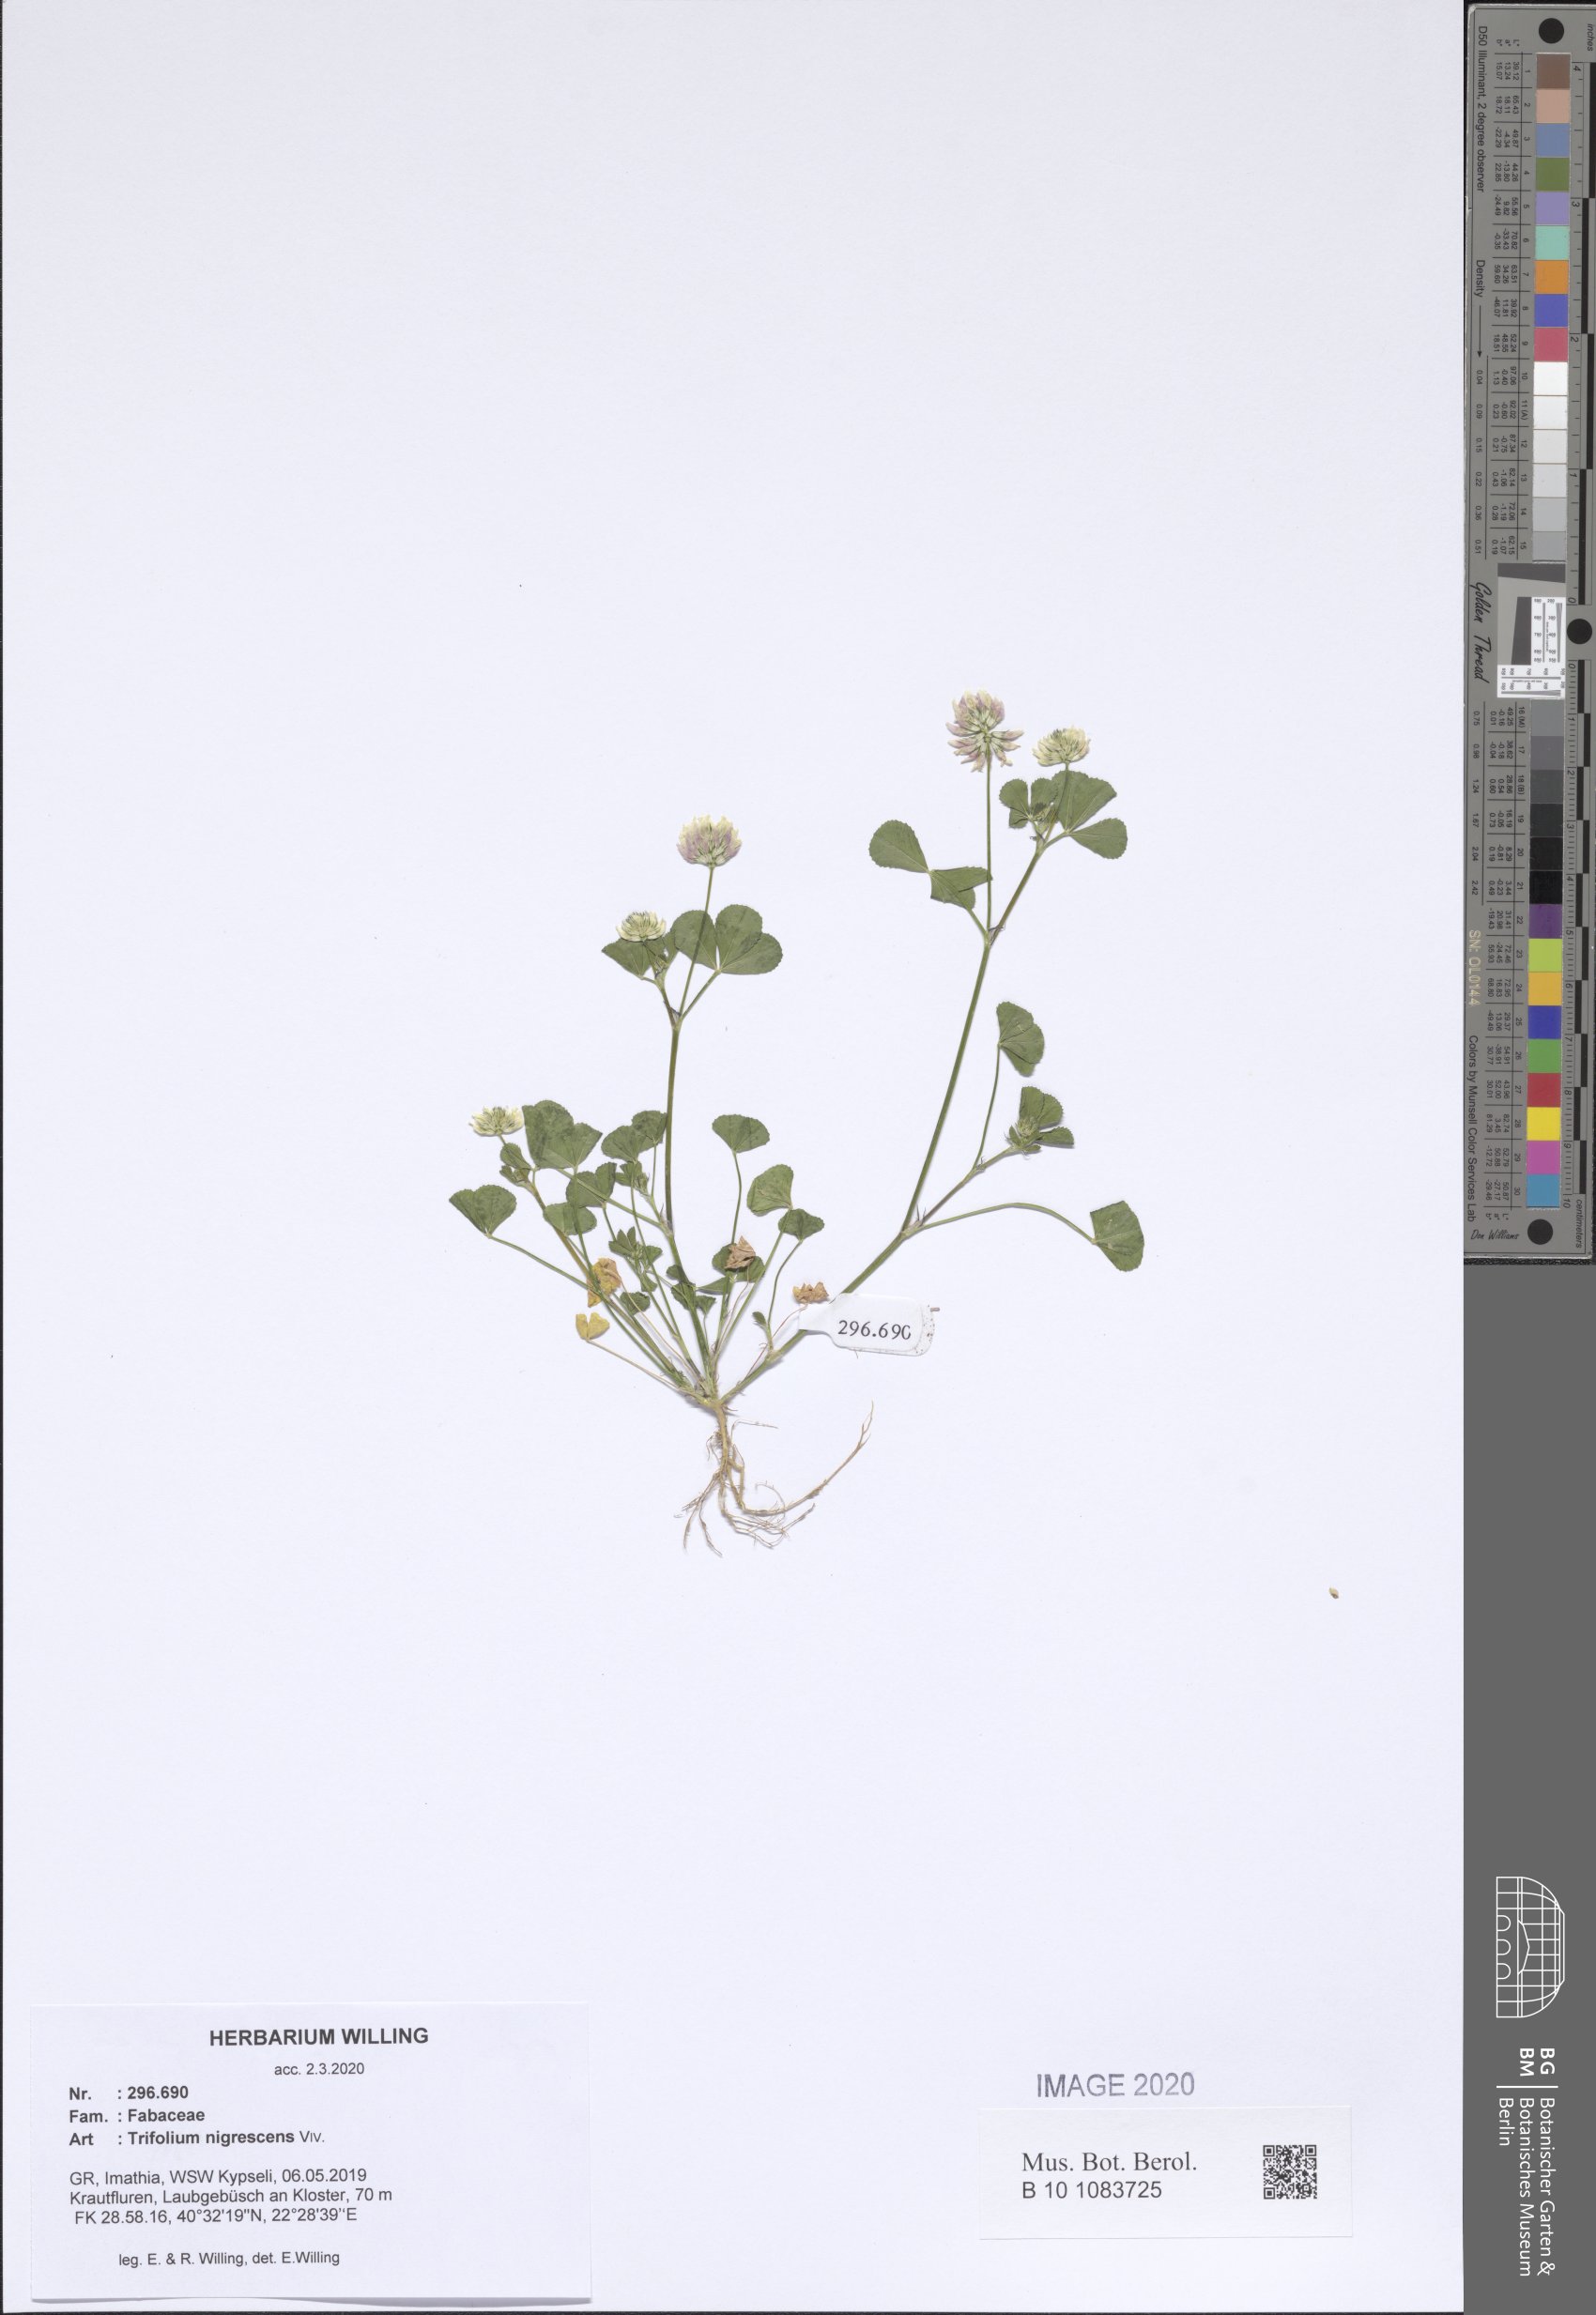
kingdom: Plantae
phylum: Tracheophyta
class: Magnoliopsida
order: Fabales
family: Fabaceae
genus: Trifolium
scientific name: Trifolium nigrescens
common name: Small white clover
